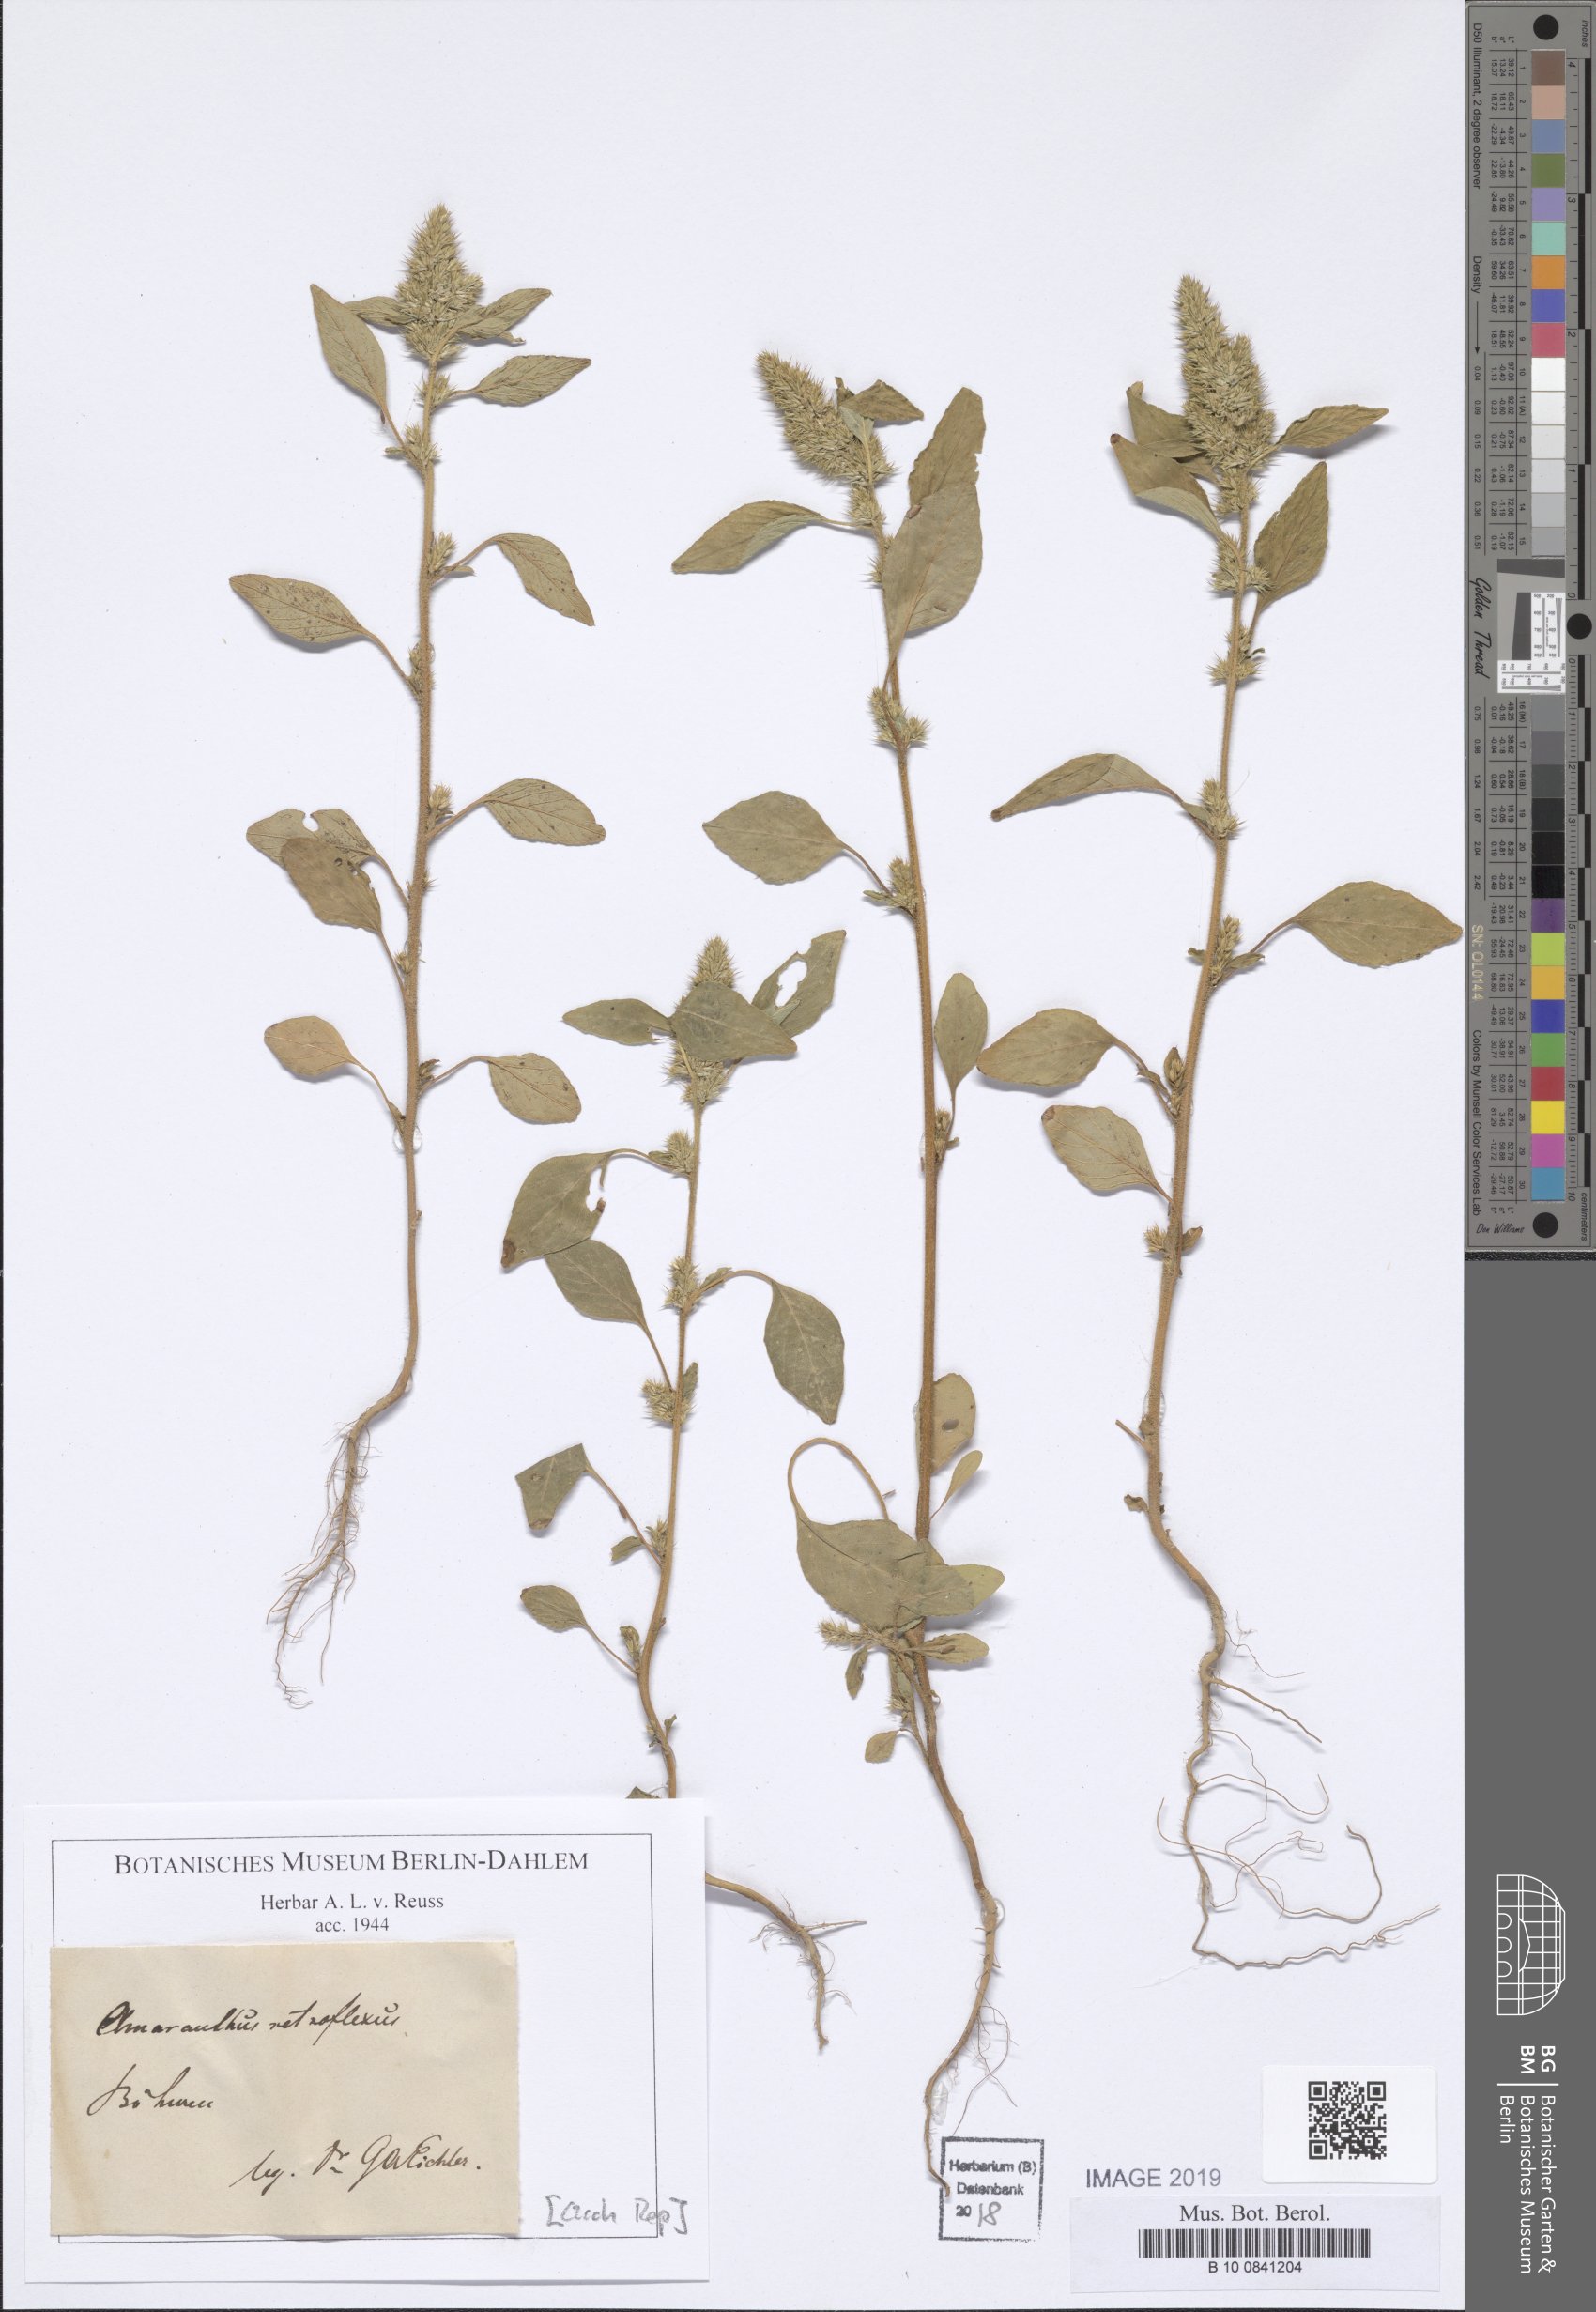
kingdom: Plantae
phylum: Tracheophyta
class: Magnoliopsida
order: Caryophyllales
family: Amaranthaceae
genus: Amaranthus
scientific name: Amaranthus retroflexus
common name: Redroot amaranth
